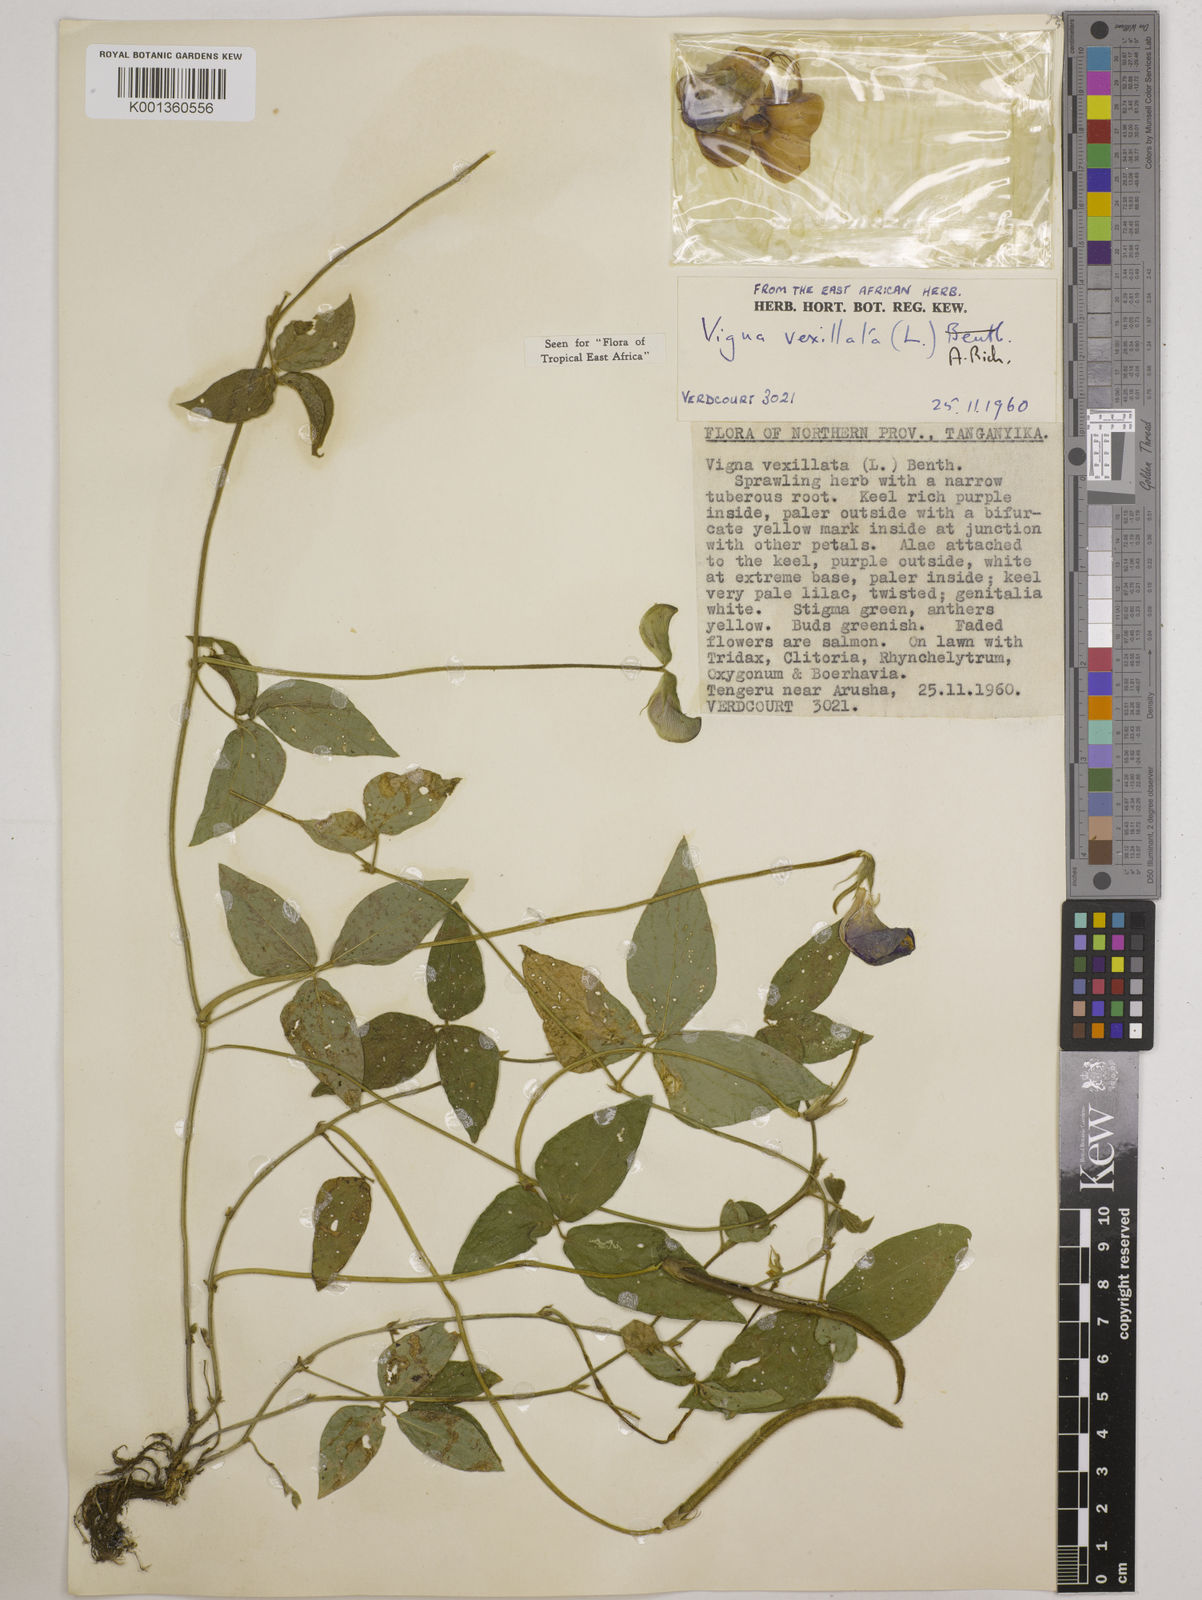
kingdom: Plantae
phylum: Tracheophyta
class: Magnoliopsida
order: Fabales
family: Fabaceae
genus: Vigna
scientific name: Vigna vexillata
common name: Zombi pea
